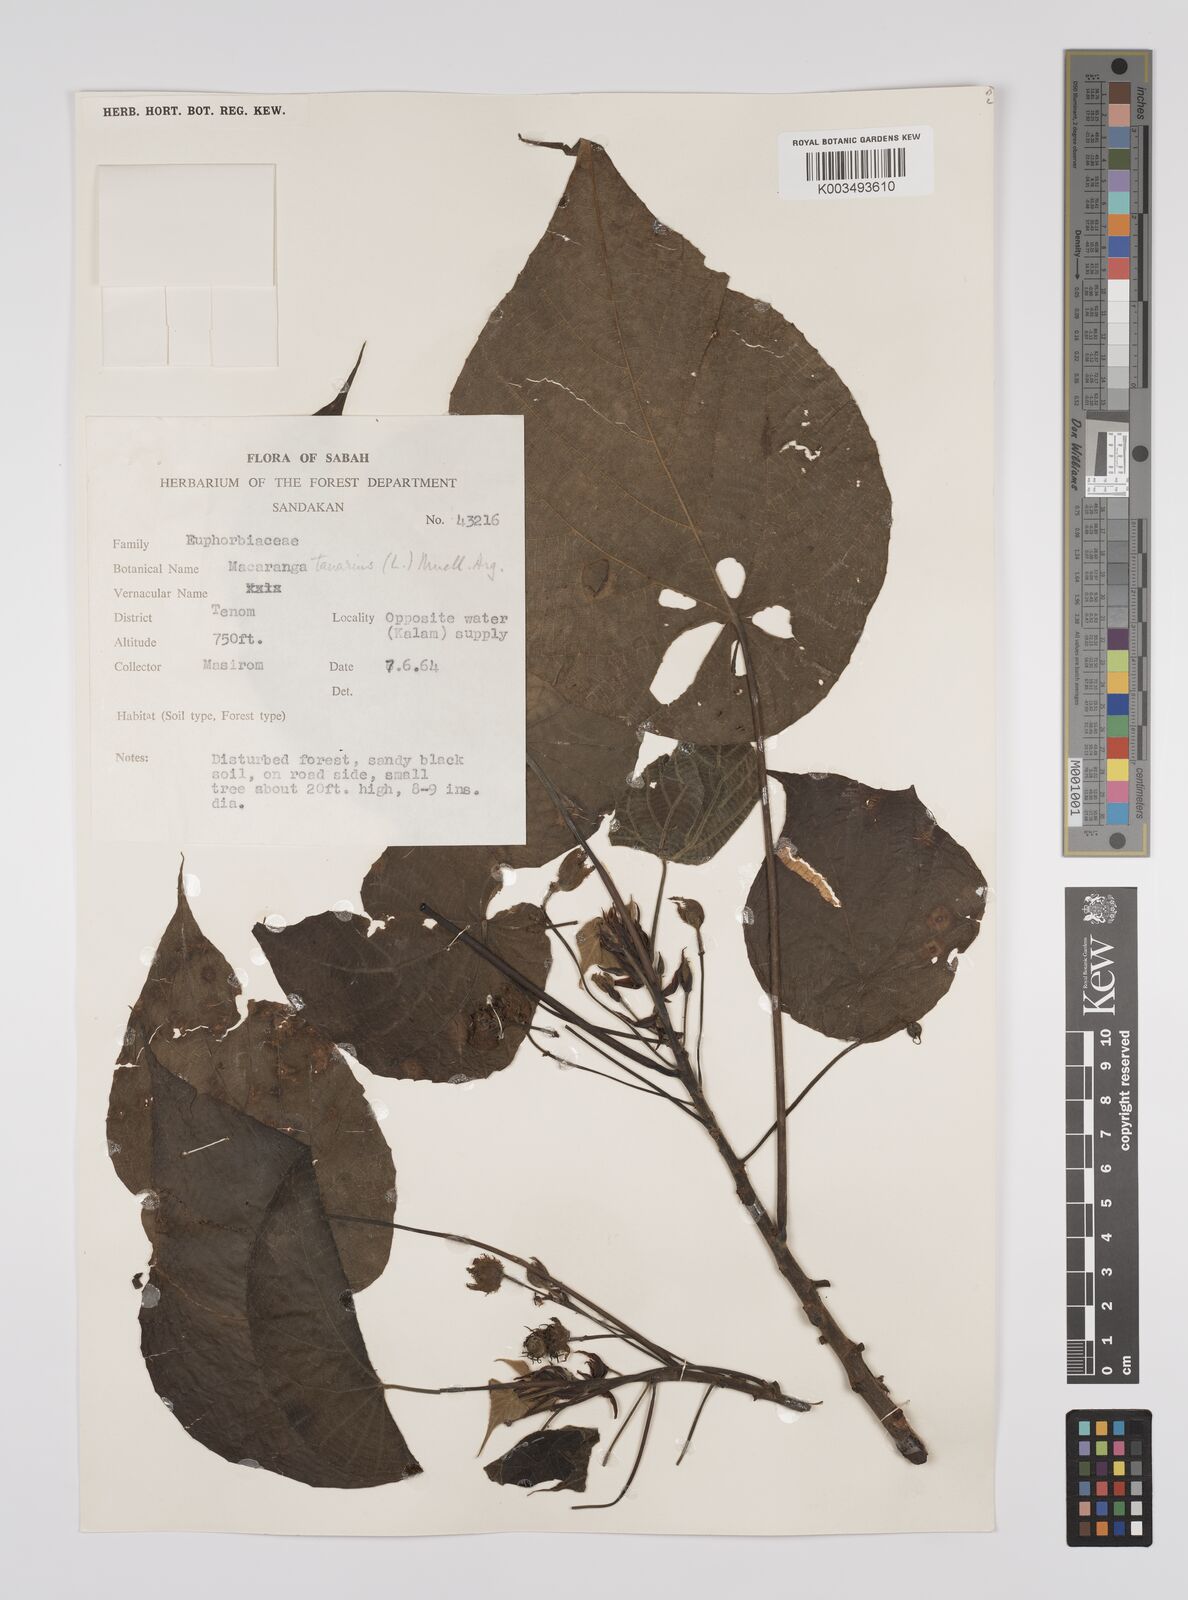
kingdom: Plantae
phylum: Tracheophyta
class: Magnoliopsida
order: Malpighiales
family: Euphorbiaceae
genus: Macaranga
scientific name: Macaranga tanarius
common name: Parasol leaf tree
